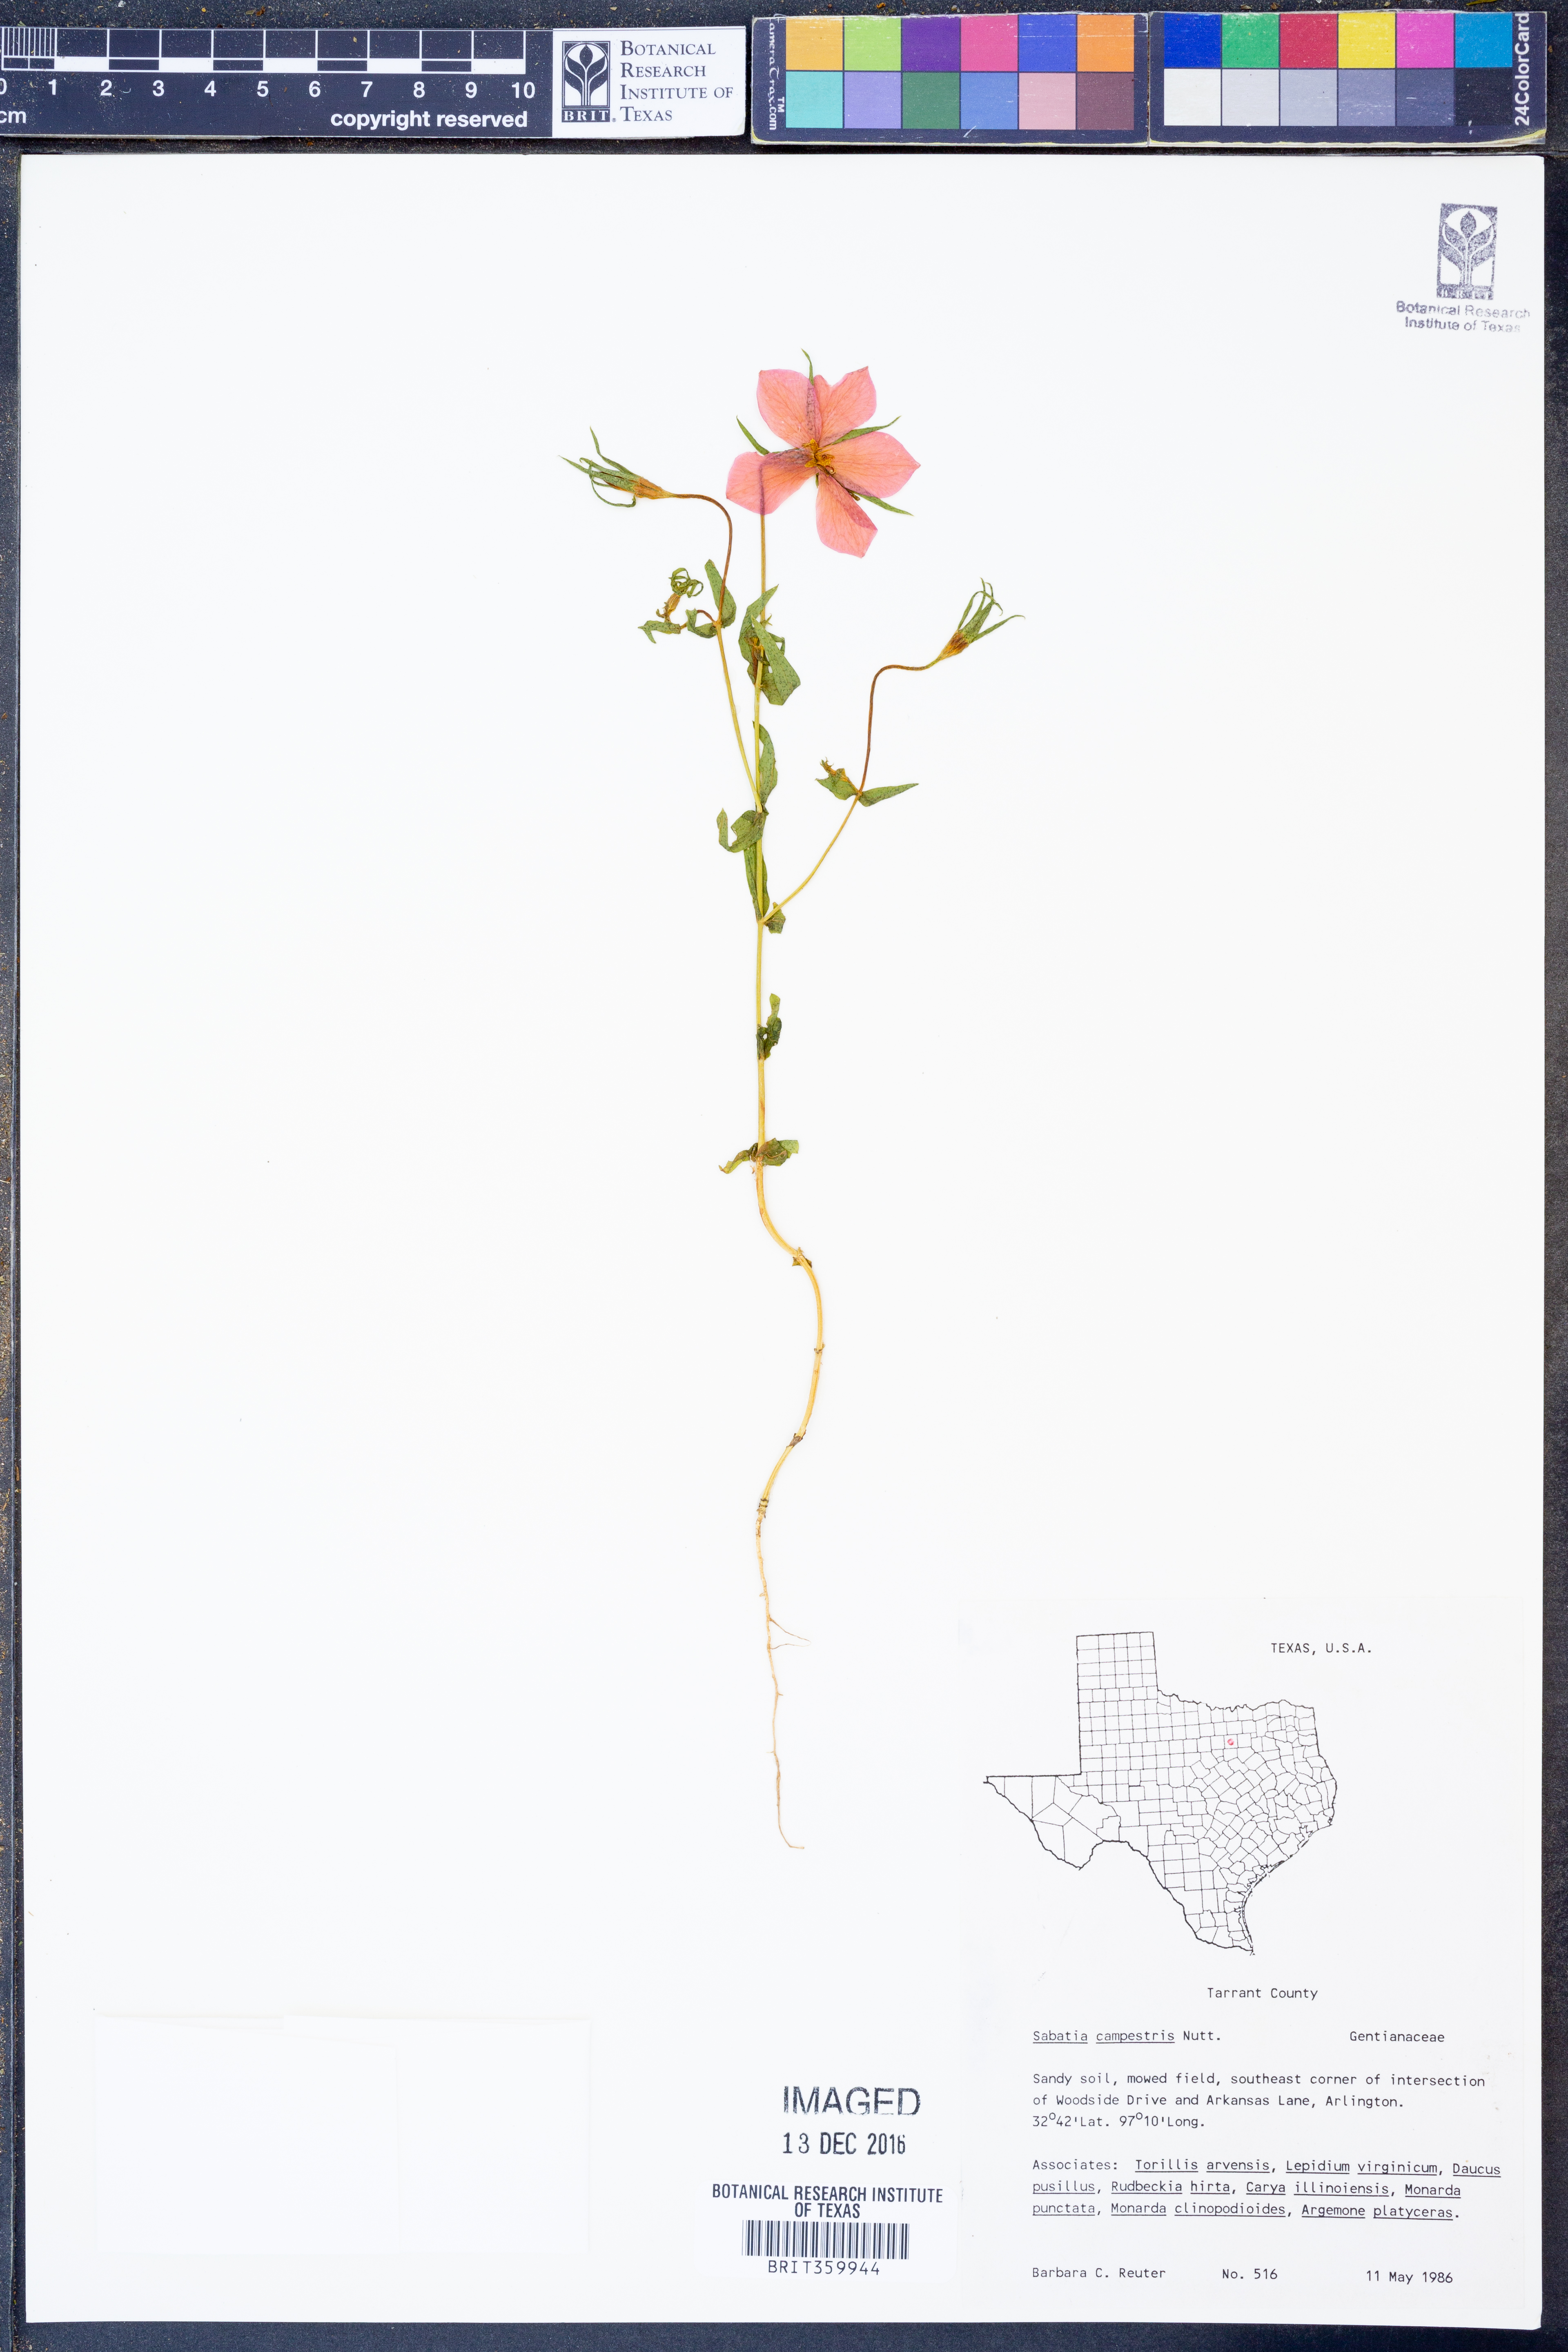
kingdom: Plantae
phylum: Tracheophyta
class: Magnoliopsida
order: Gentianales
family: Gentianaceae
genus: Sabatia
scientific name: Sabatia campestris
